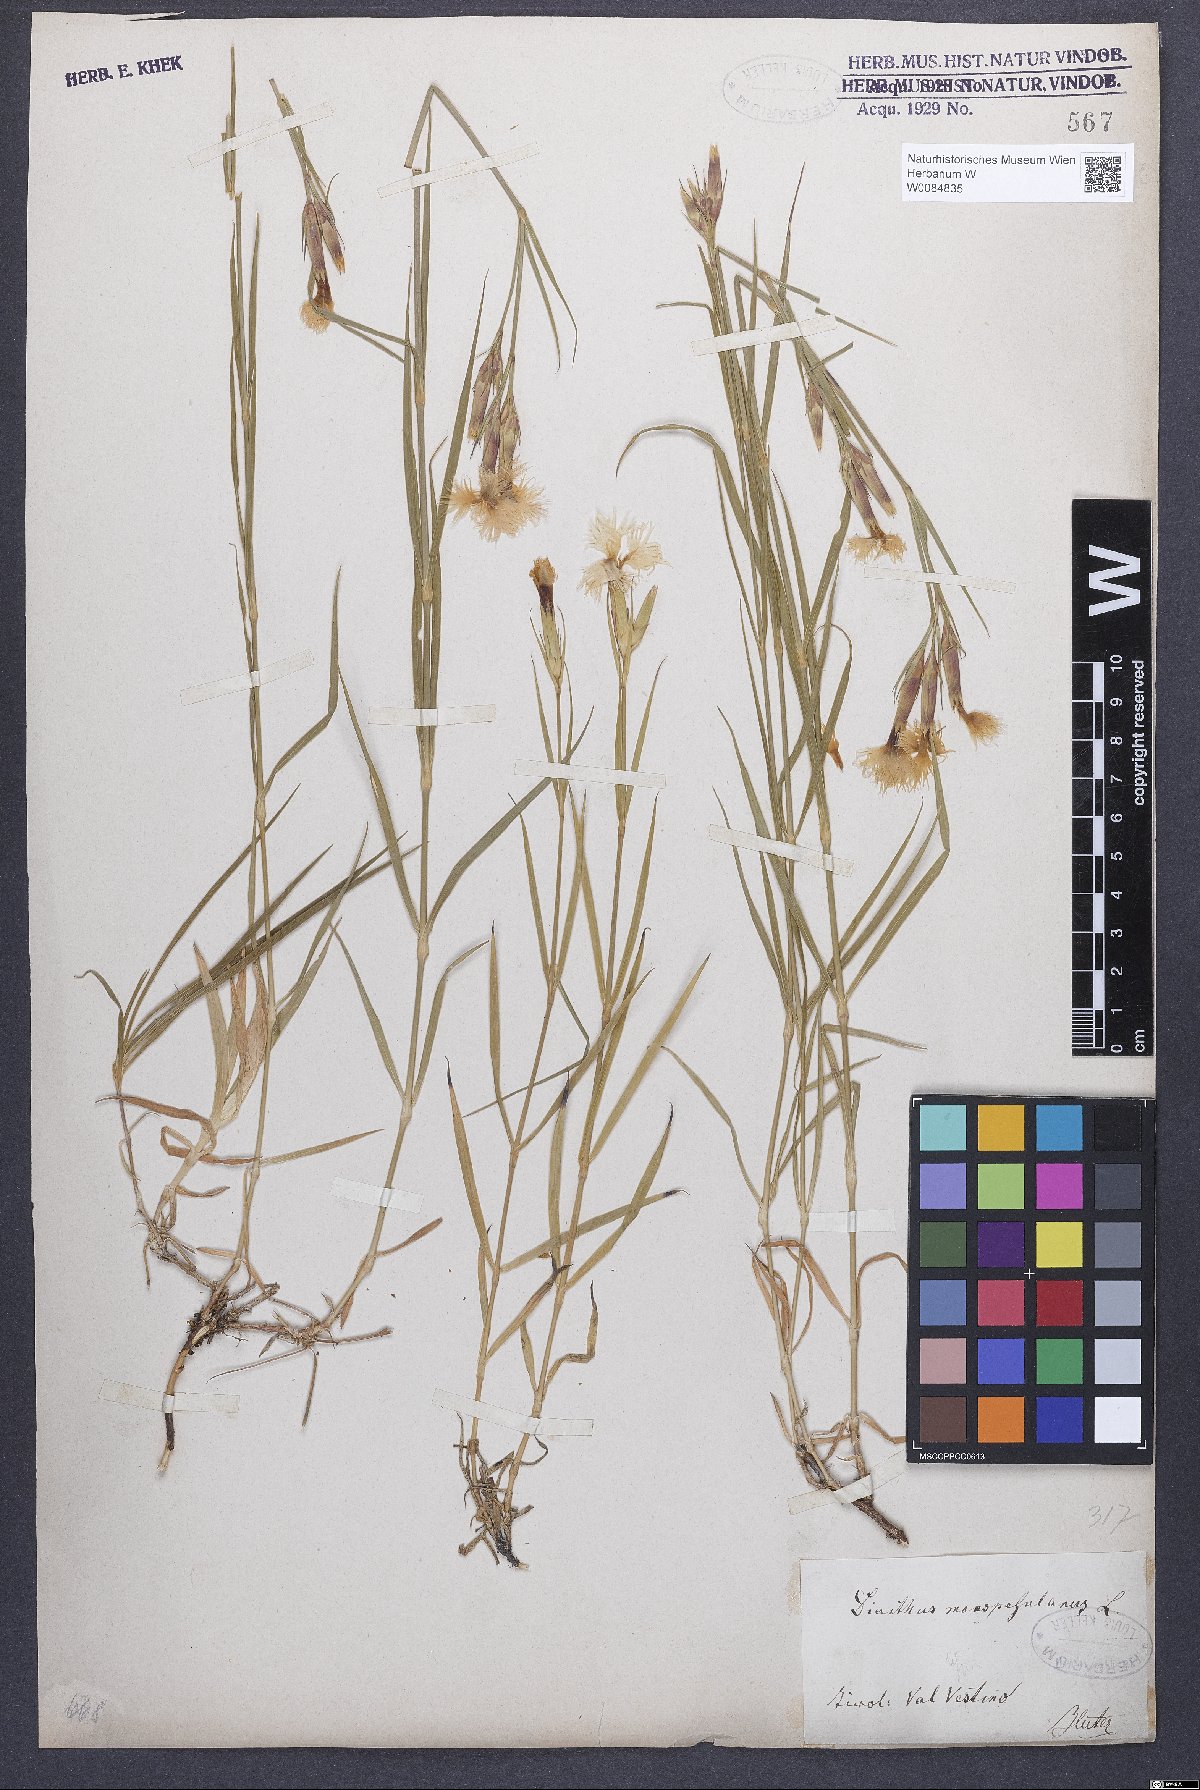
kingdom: Plantae
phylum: Tracheophyta
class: Magnoliopsida
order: Caryophyllales
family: Caryophyllaceae
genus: Dianthus
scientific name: Dianthus hyssopifolius
